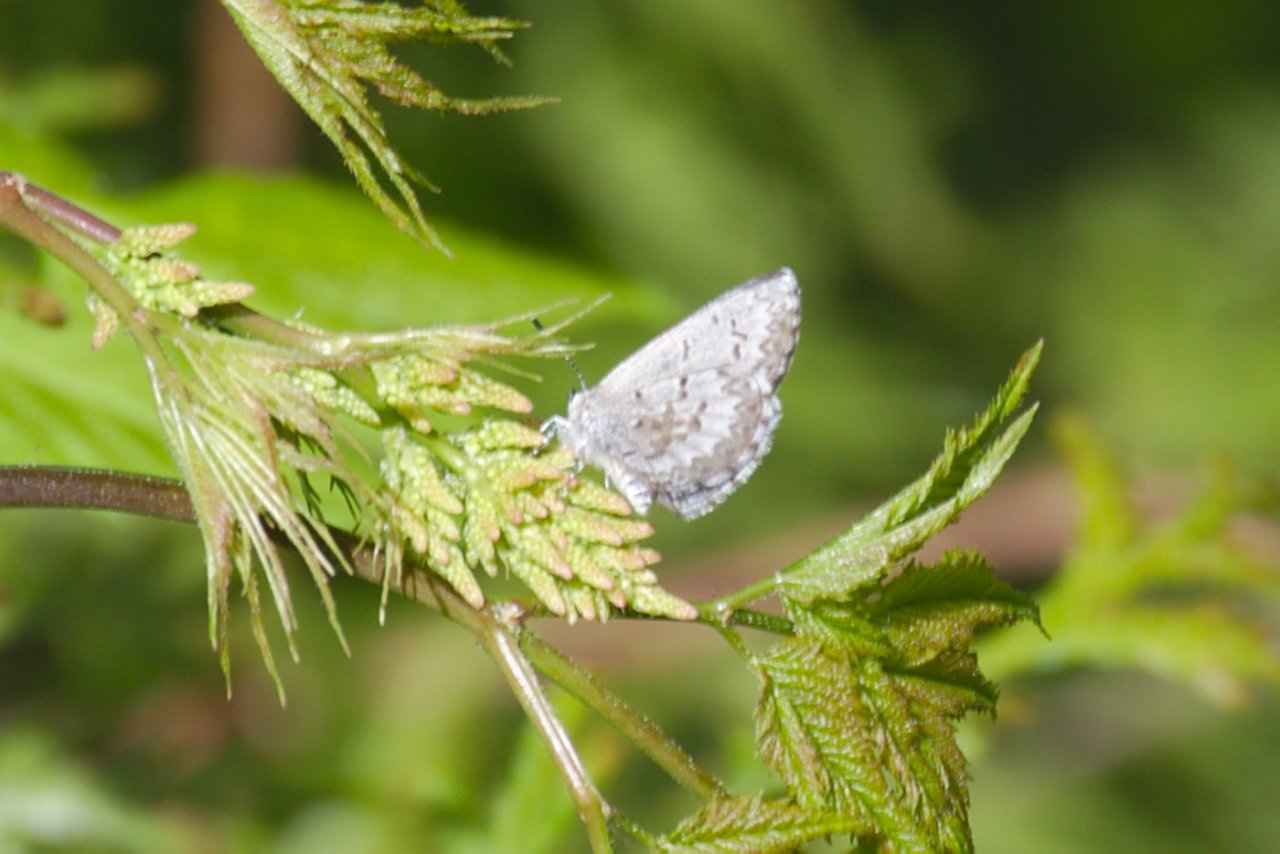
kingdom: Animalia
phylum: Arthropoda
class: Insecta
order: Lepidoptera
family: Lycaenidae
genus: Celastrina
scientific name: Celastrina lucia
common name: Northern Spring Azure
